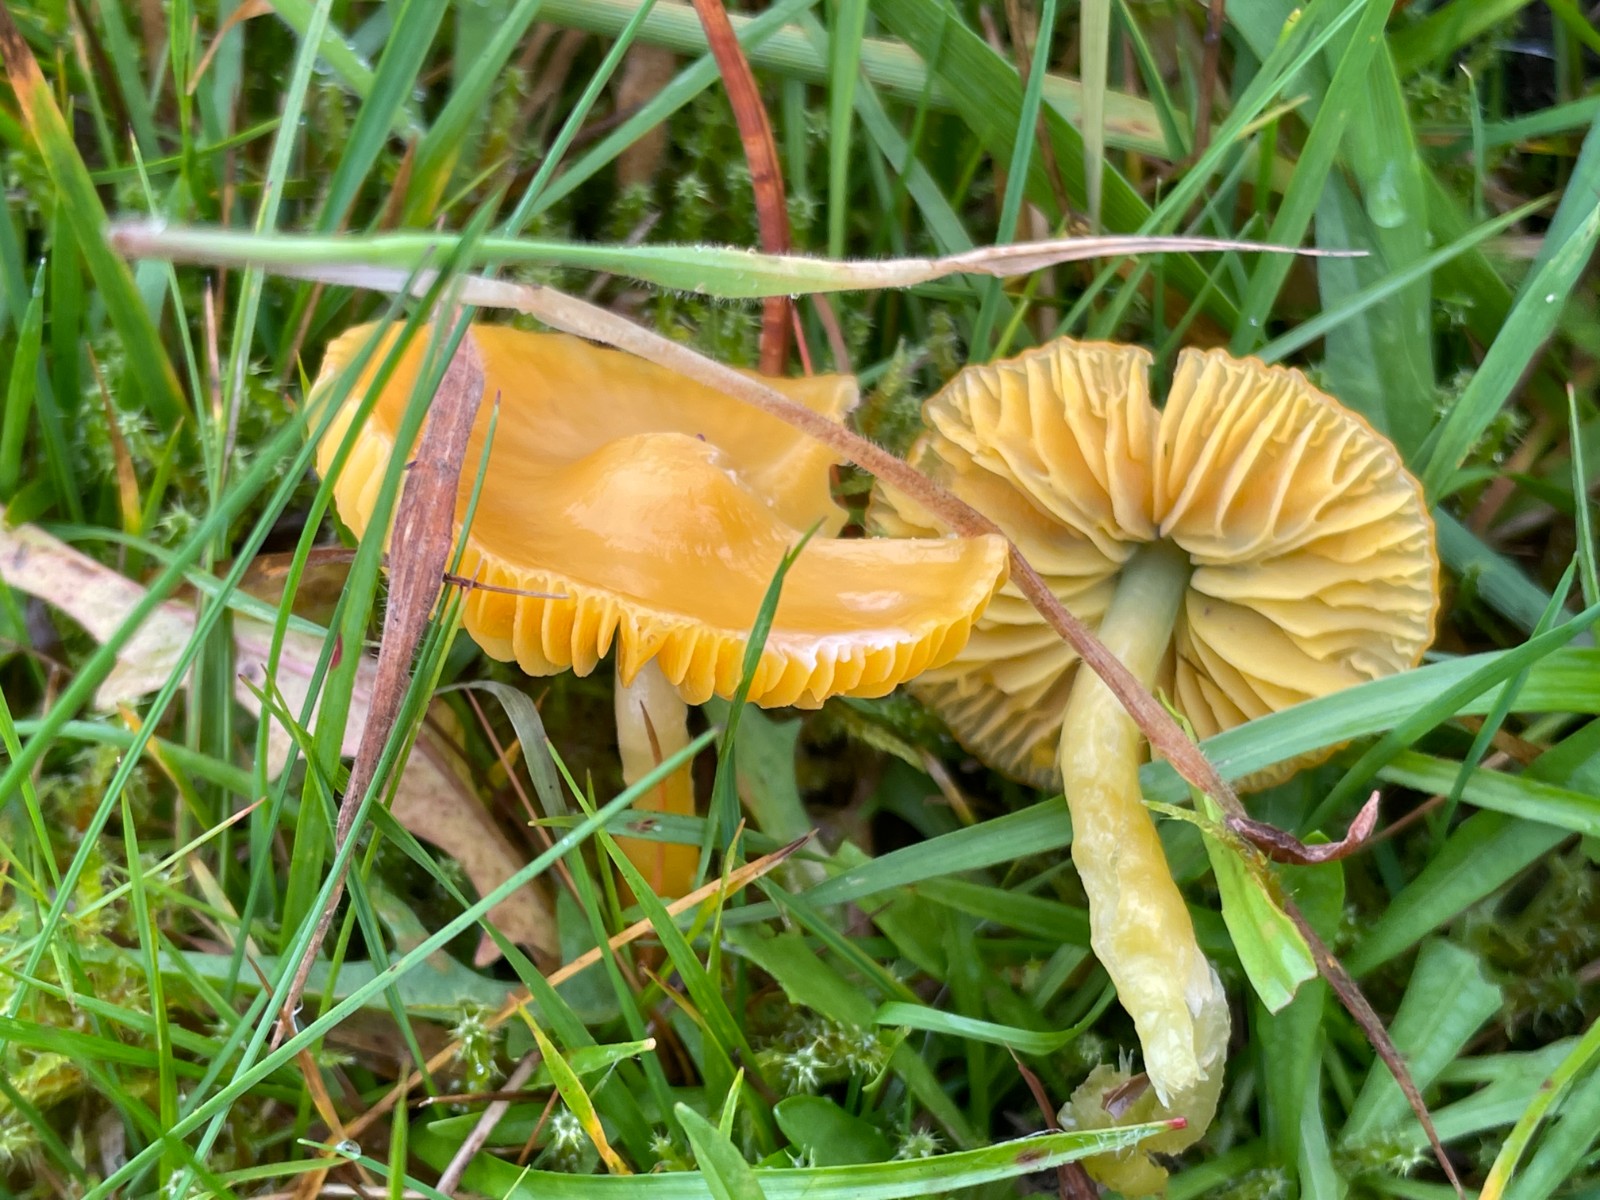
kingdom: Fungi
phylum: Basidiomycota
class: Agaricomycetes
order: Agaricales
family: Hygrophoraceae
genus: Gliophorus
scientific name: Gliophorus psittacinus
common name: papegøje-vokshat
